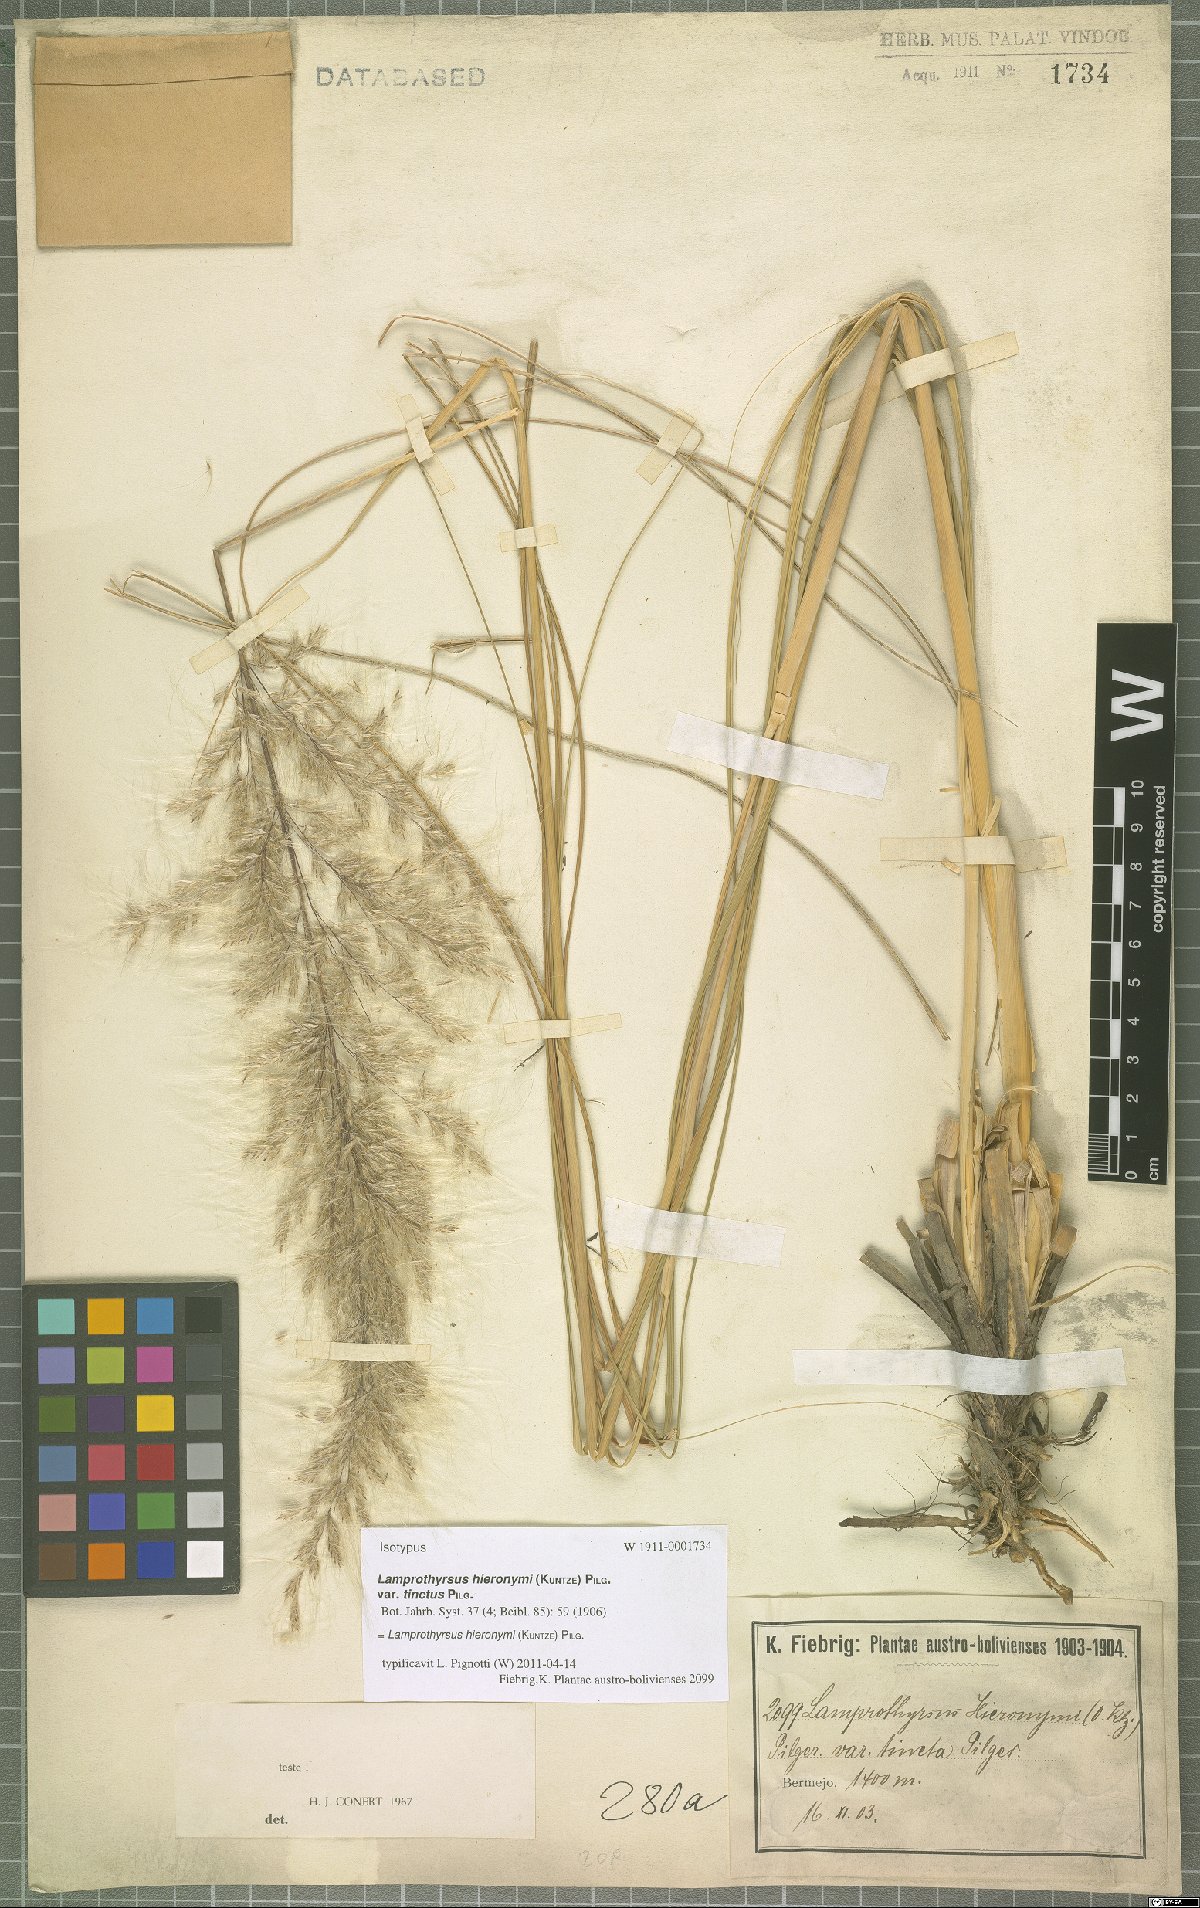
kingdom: Plantae
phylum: Tracheophyta
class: Liliopsida
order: Poales
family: Poaceae
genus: Cortaderia
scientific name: Cortaderia hieronymi
